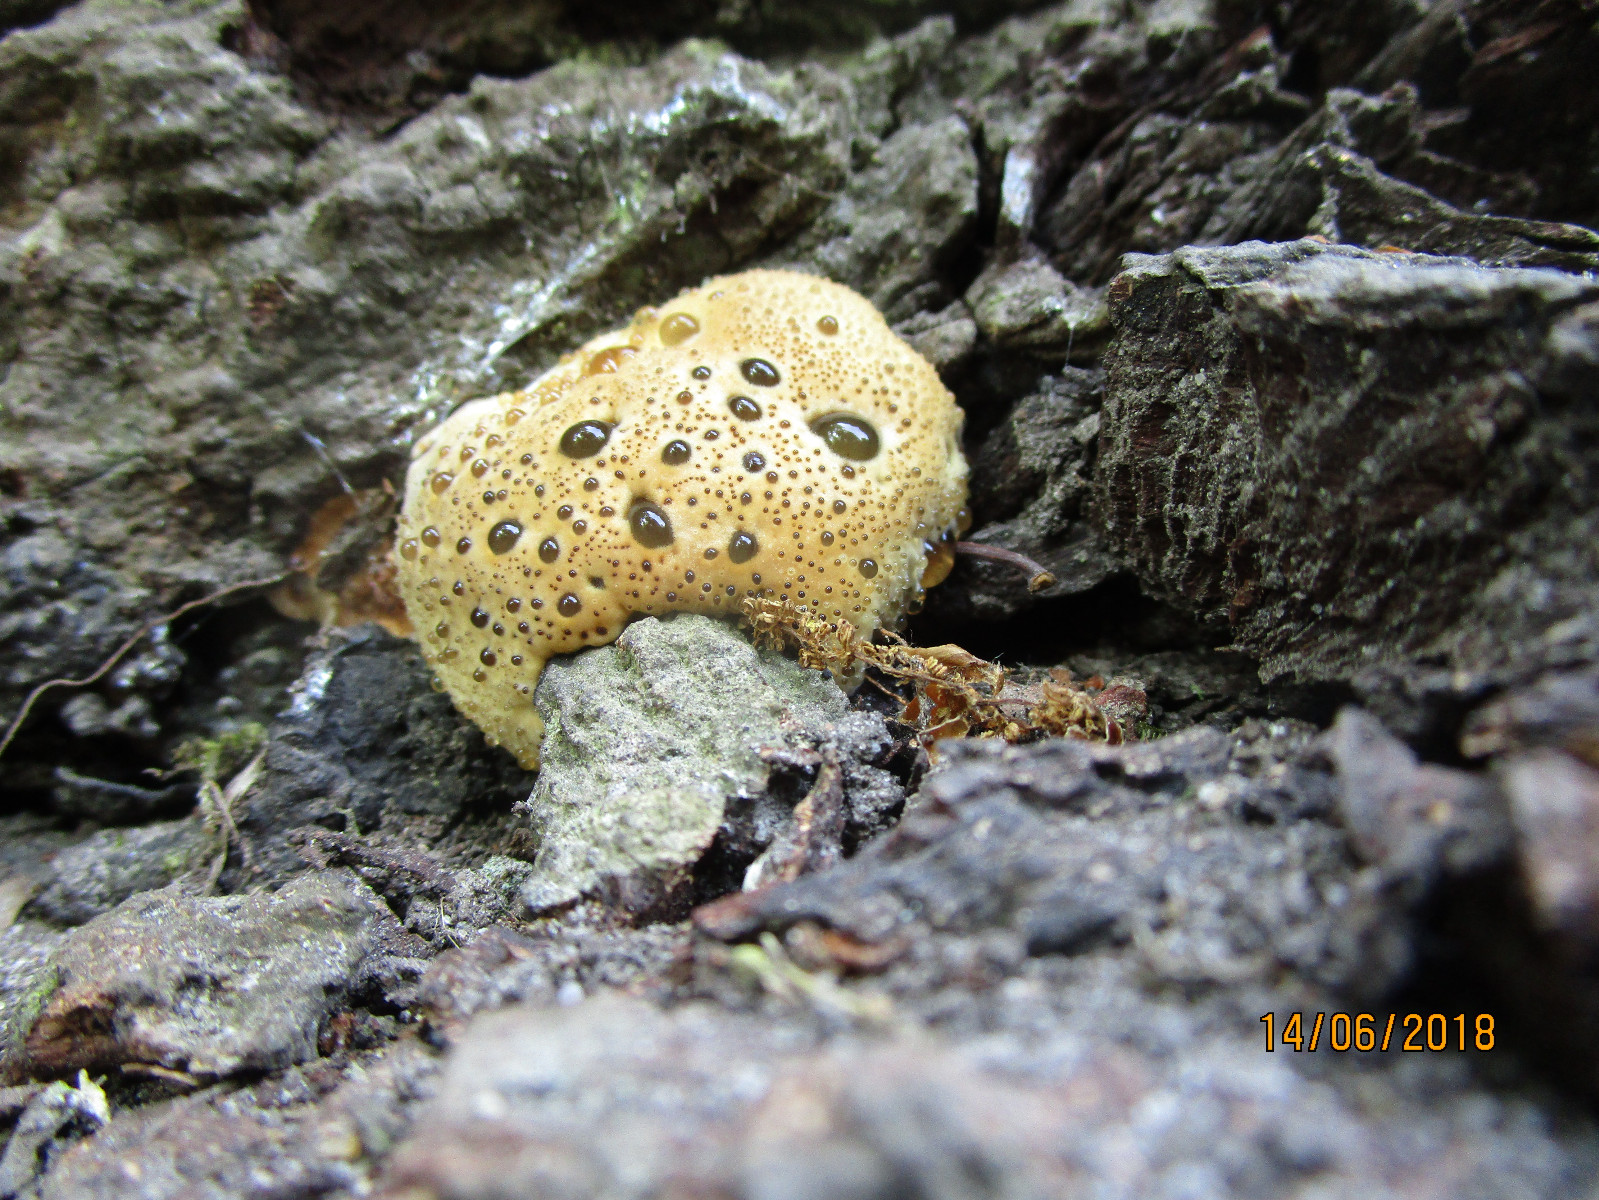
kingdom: Fungi
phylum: Basidiomycota
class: Agaricomycetes
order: Hymenochaetales
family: Hymenochaetaceae
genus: Pseudoinonotus
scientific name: Pseudoinonotus dryadeus
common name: ege-spejlporesvamp
